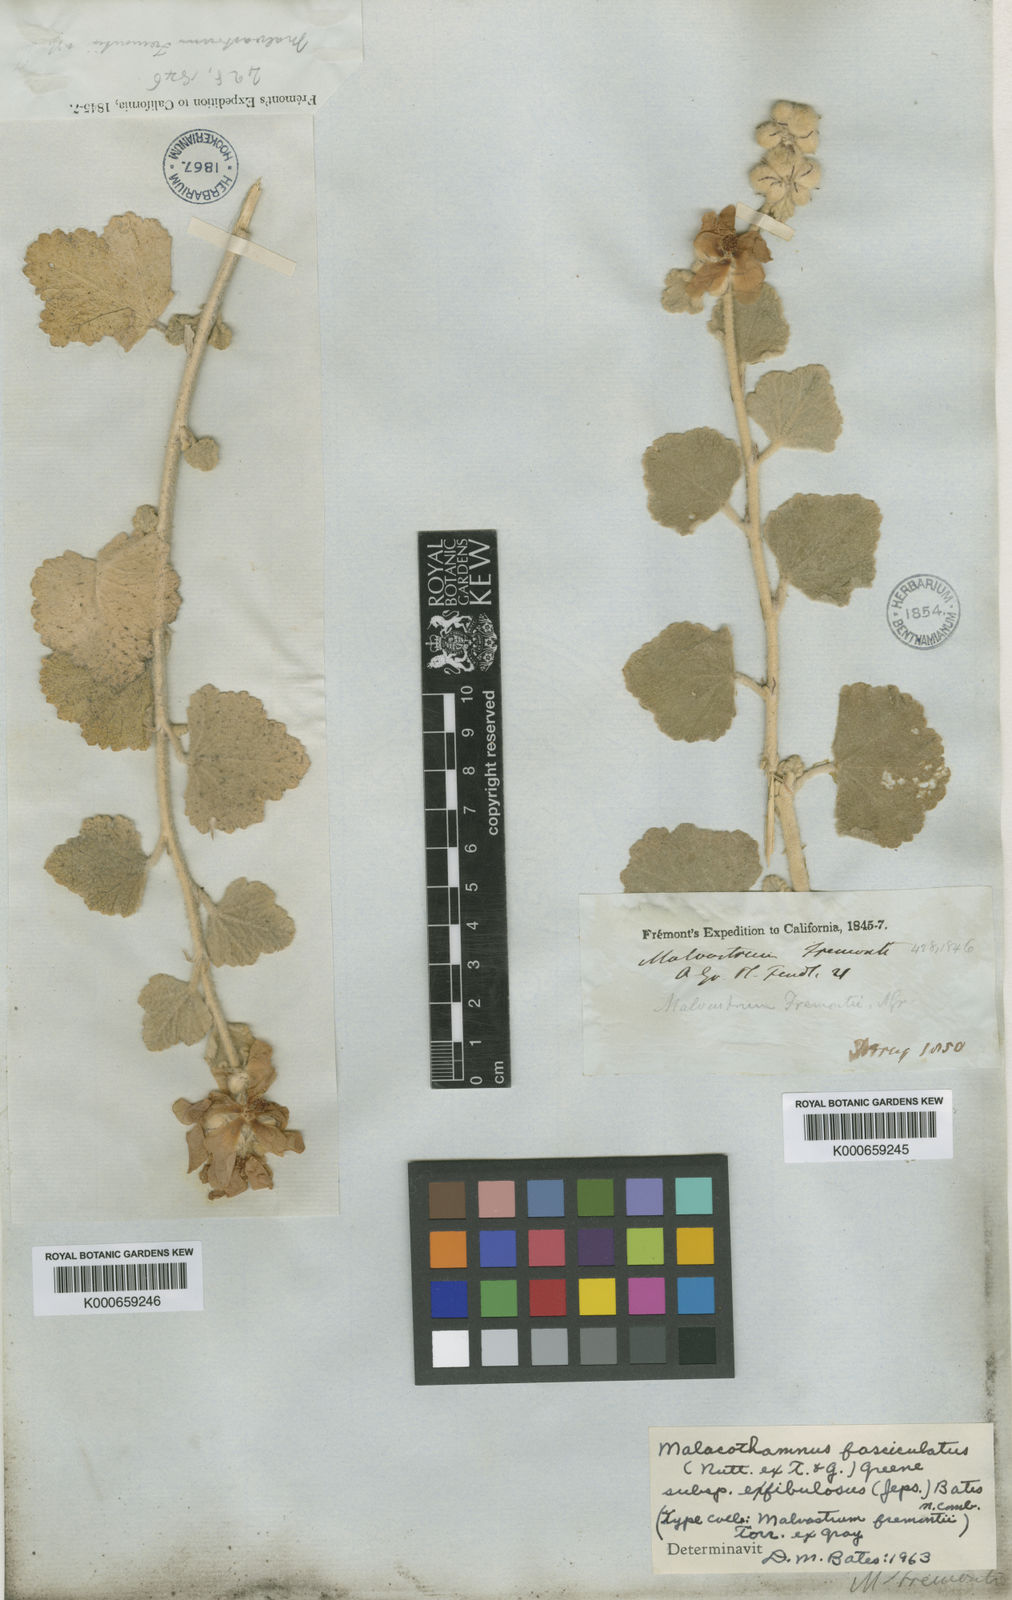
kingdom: Plantae
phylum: Tracheophyta
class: Magnoliopsida
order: Malvales
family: Malvaceae
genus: Malacothamnus
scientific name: Malacothamnus fasciculatus
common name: Sant cruz island bush-mallow
